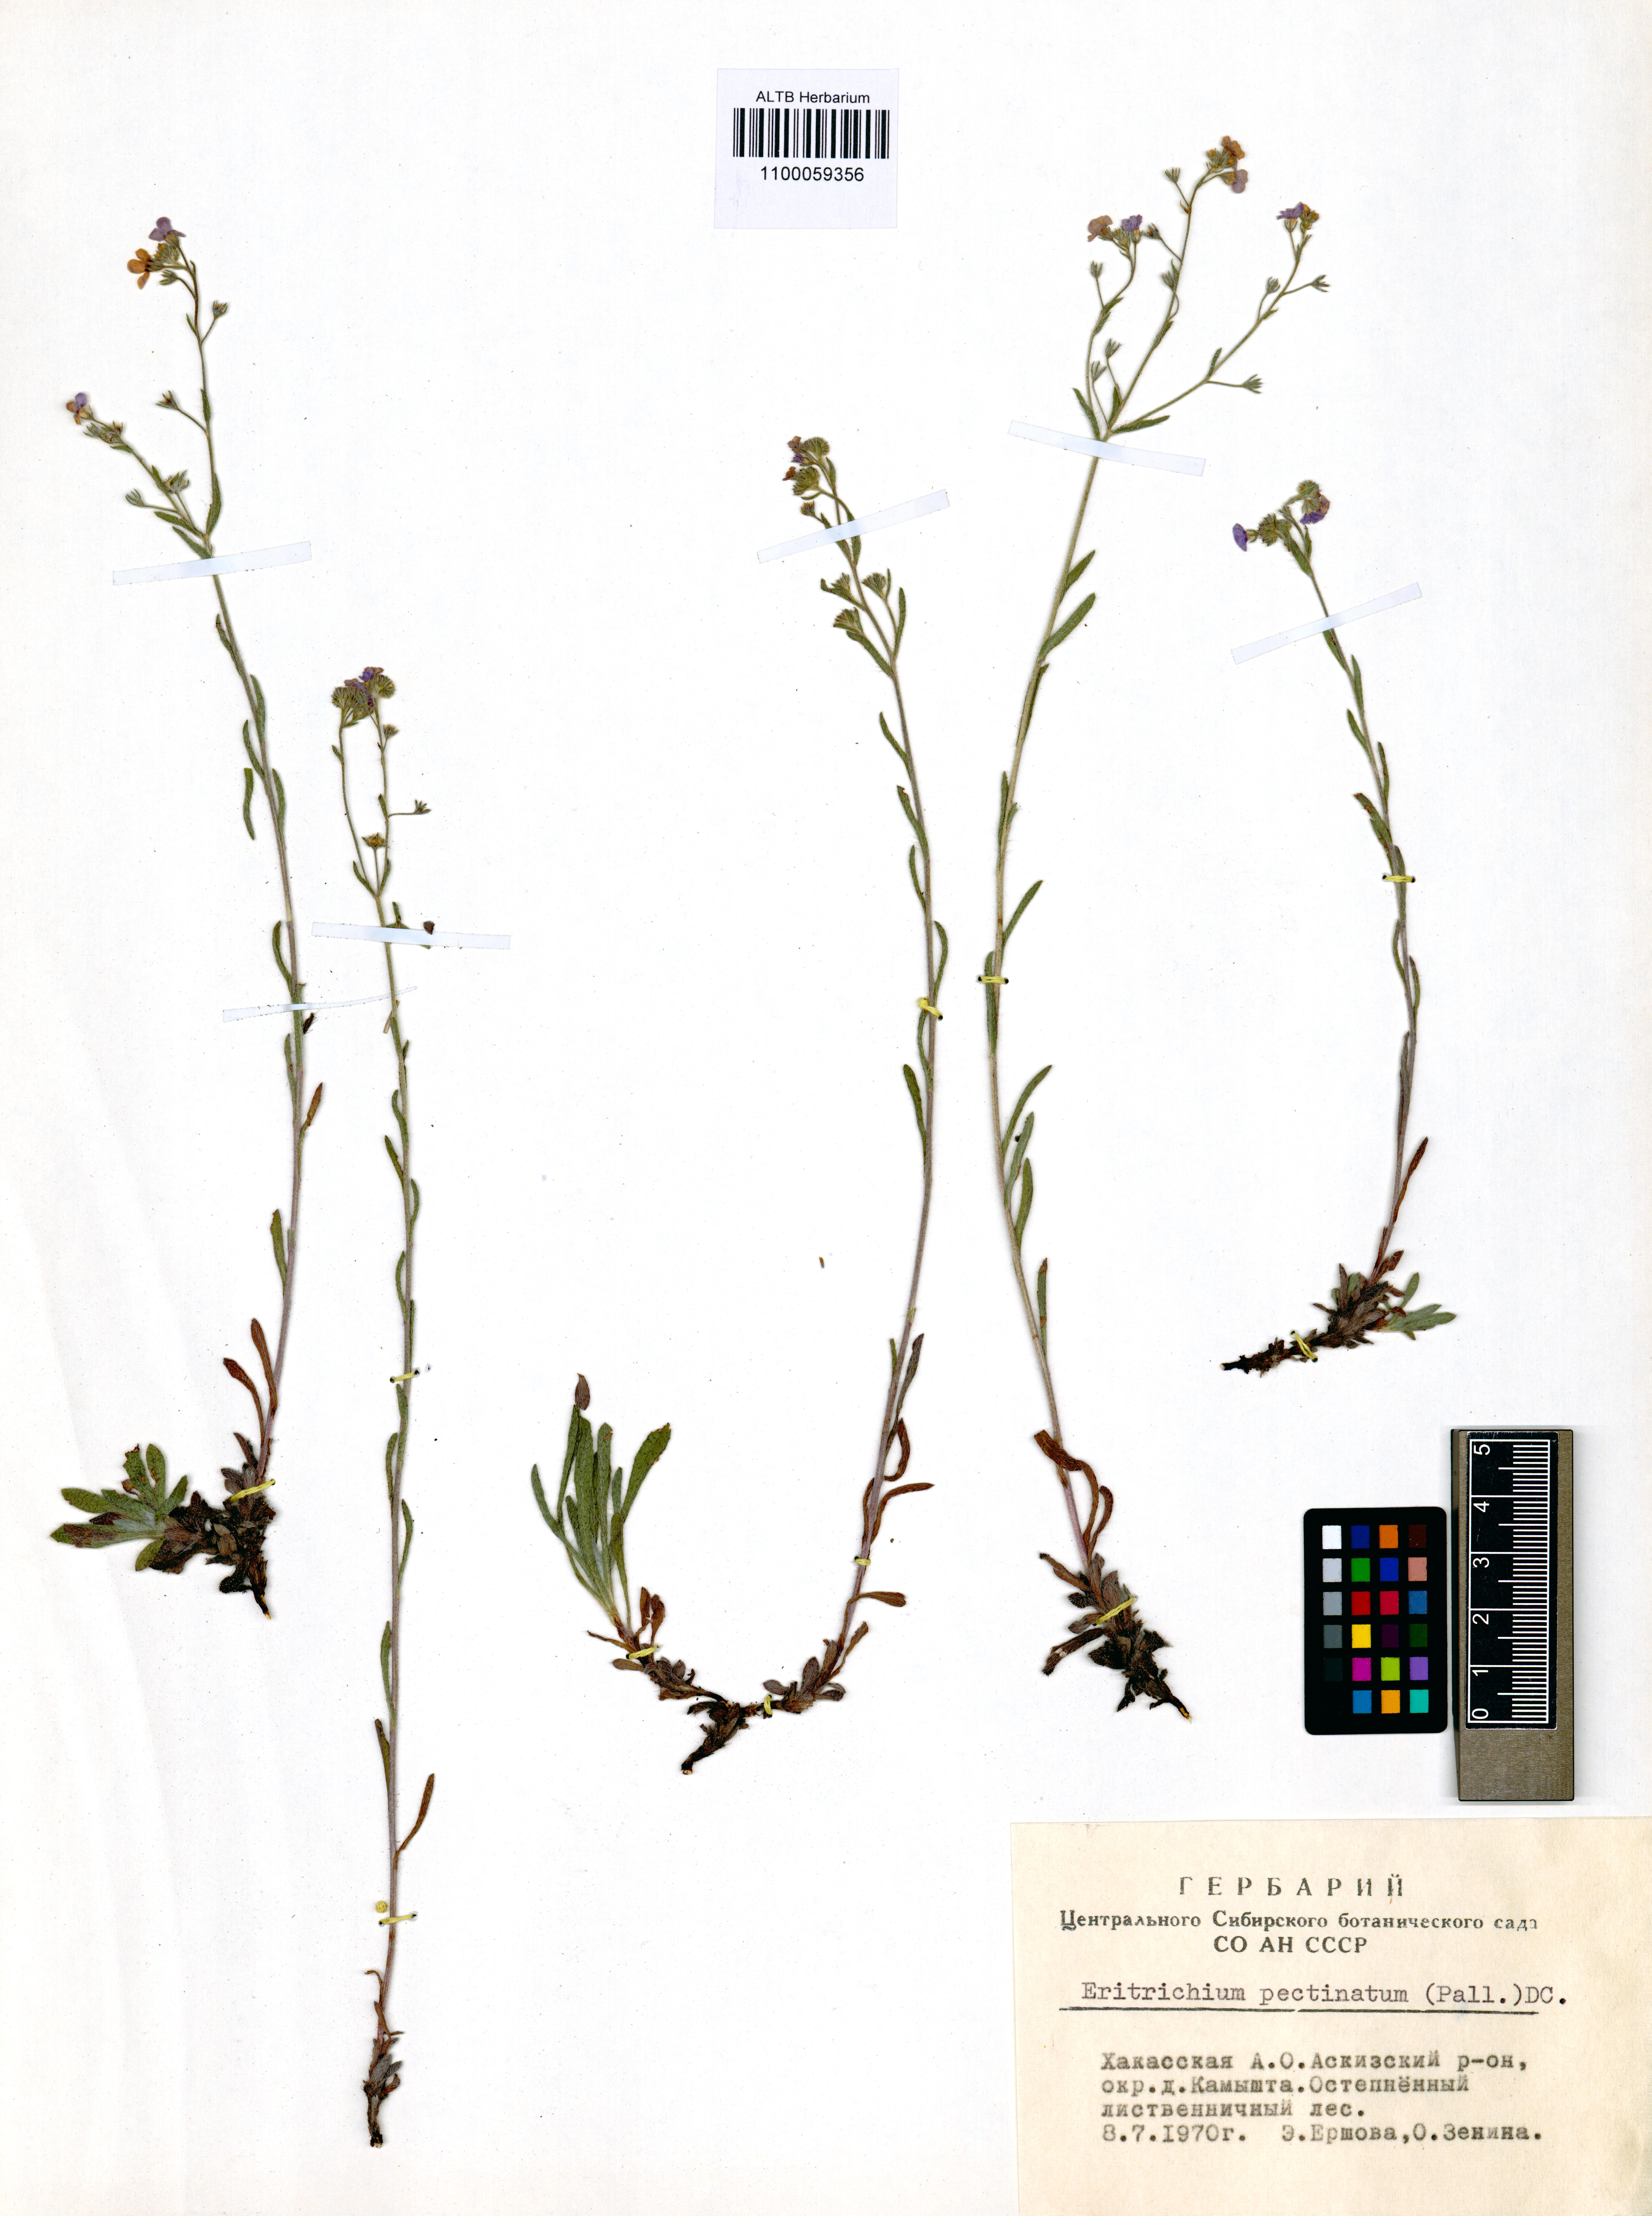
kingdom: Plantae
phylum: Tracheophyta
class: Magnoliopsida
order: Boraginales
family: Boraginaceae
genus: Eritrichium
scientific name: Eritrichium pectinatum
